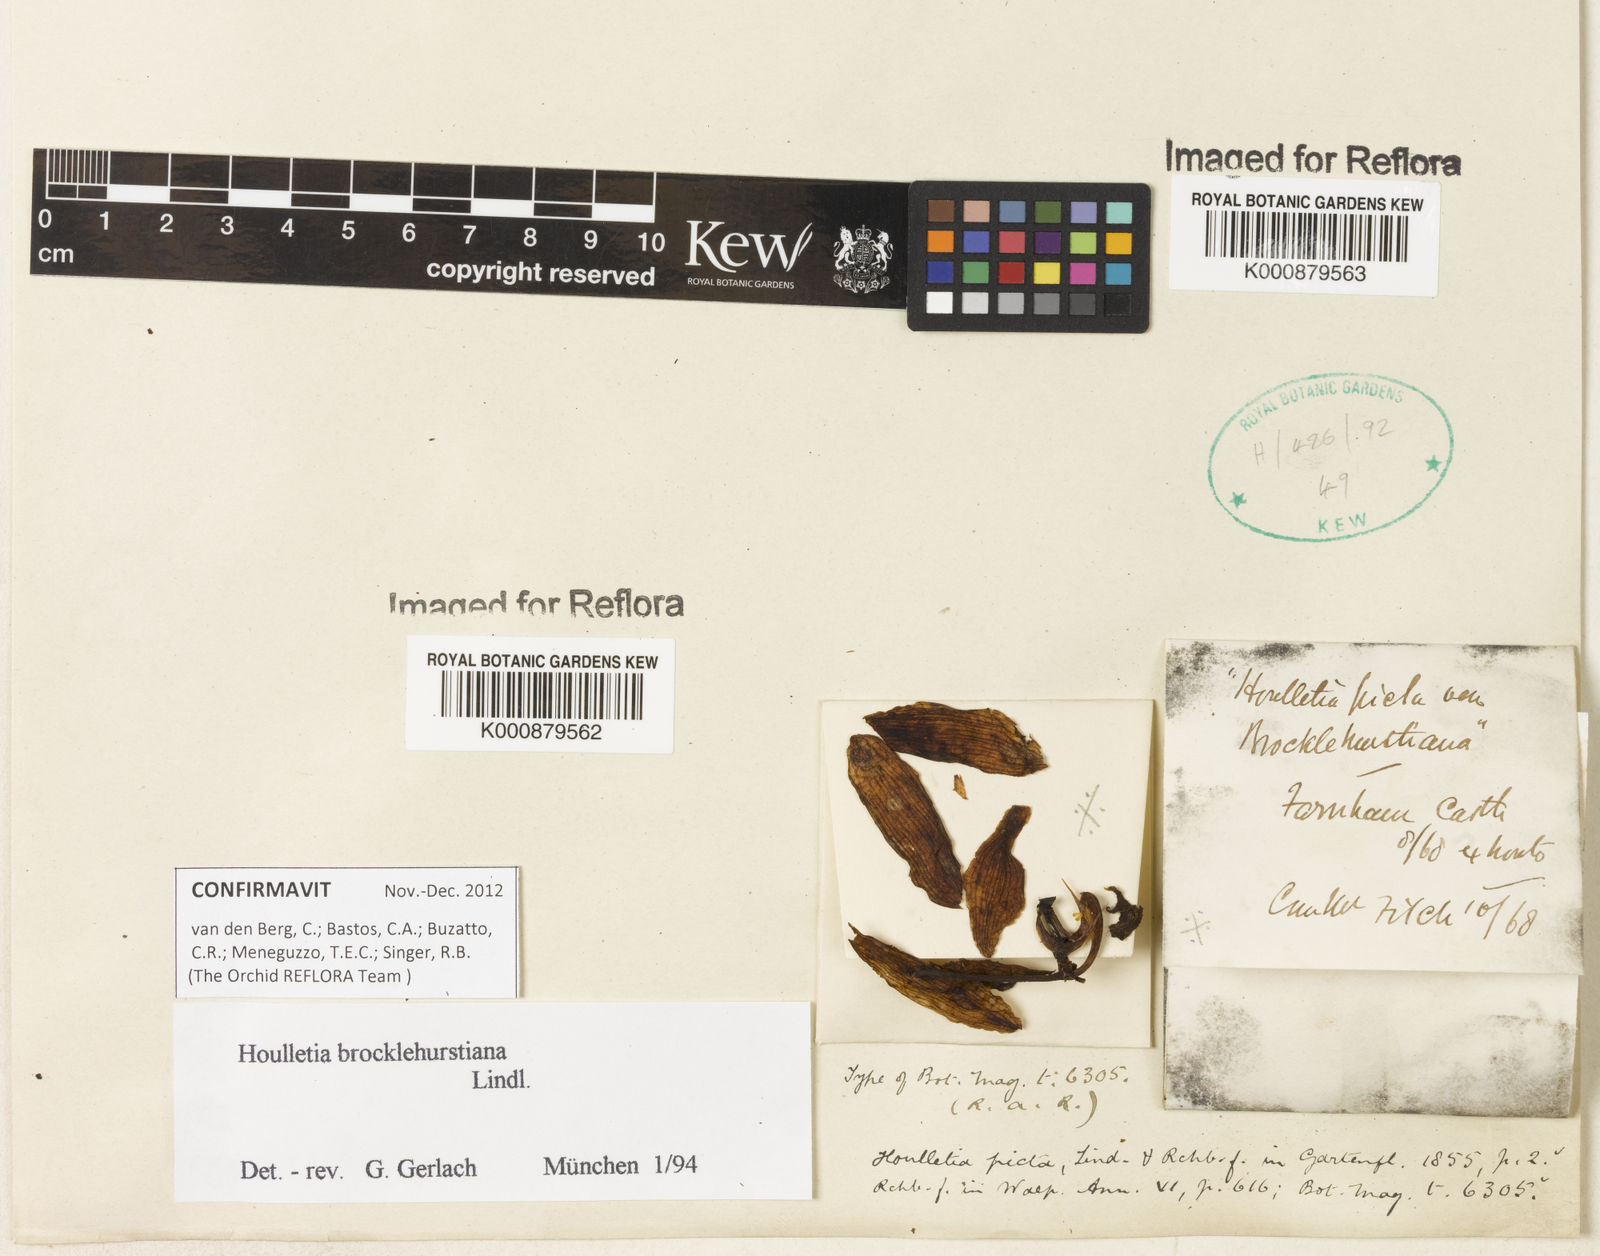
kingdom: Plantae
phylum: Tracheophyta
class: Liliopsida
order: Asparagales
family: Orchidaceae
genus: Houlletia
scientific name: Houlletia brocklehurstiana
